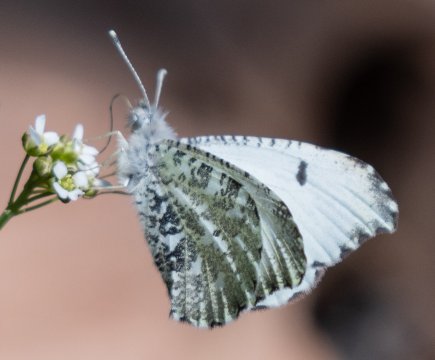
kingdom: Animalia
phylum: Arthropoda
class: Insecta
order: Lepidoptera
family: Pieridae
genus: Anthocharis
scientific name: Anthocharis midea
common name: Falcate Orangetip
